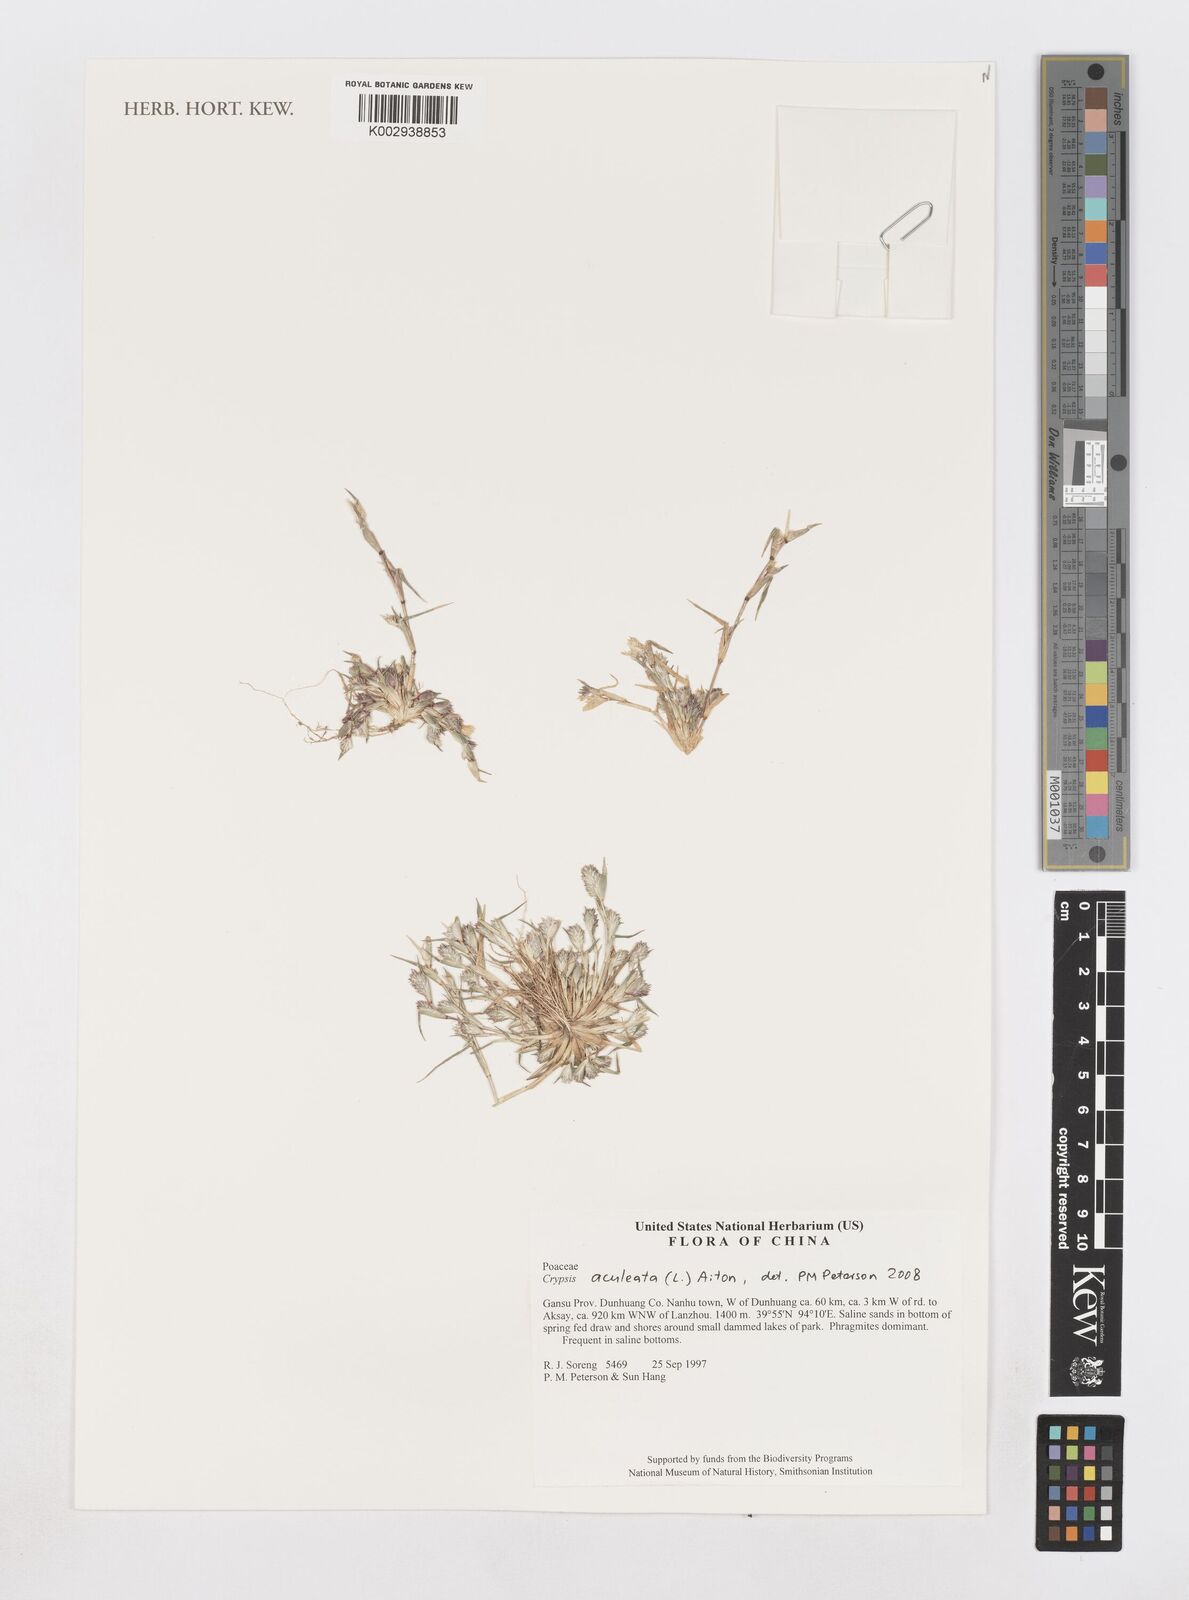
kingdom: Plantae
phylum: Tracheophyta
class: Liliopsida
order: Poales
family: Poaceae
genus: Sporobolus
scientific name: Sporobolus aculeatus
